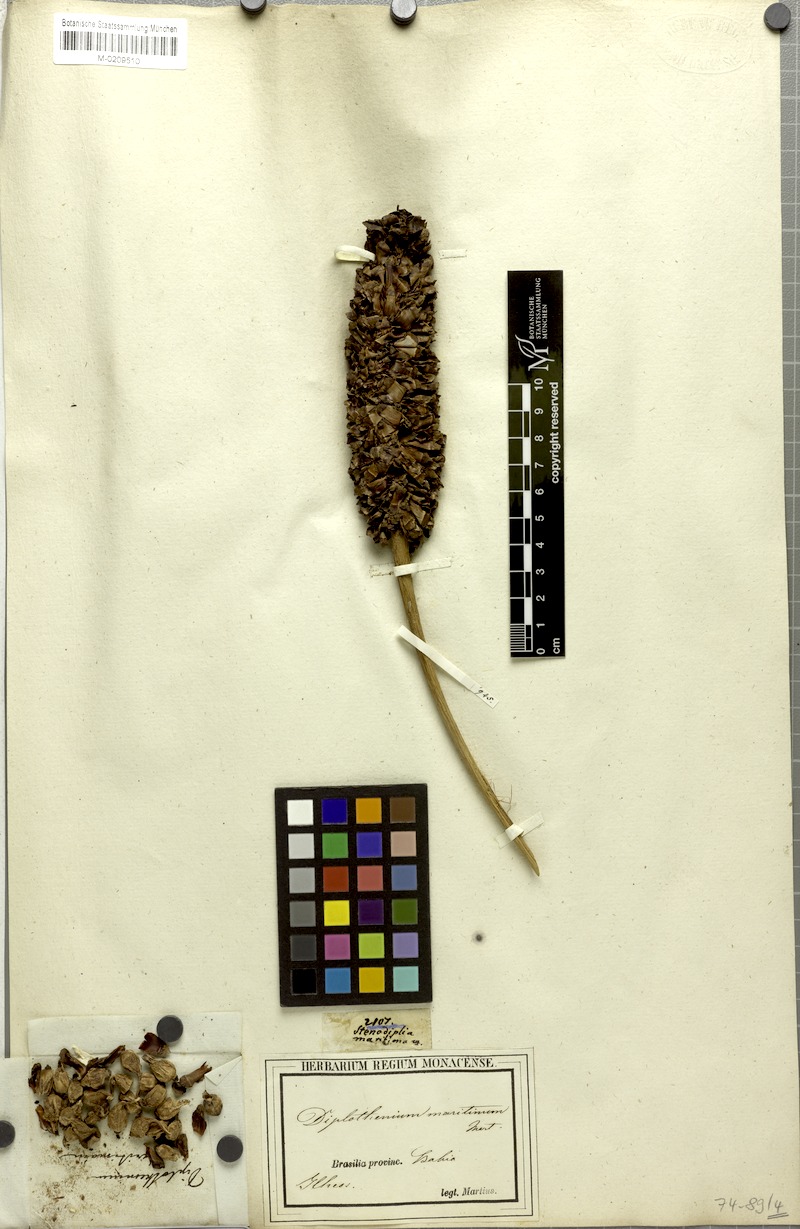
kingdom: Plantae
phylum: Tracheophyta
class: Liliopsida
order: Arecales
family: Arecaceae
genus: Allagoptera
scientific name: Allagoptera arenaria
